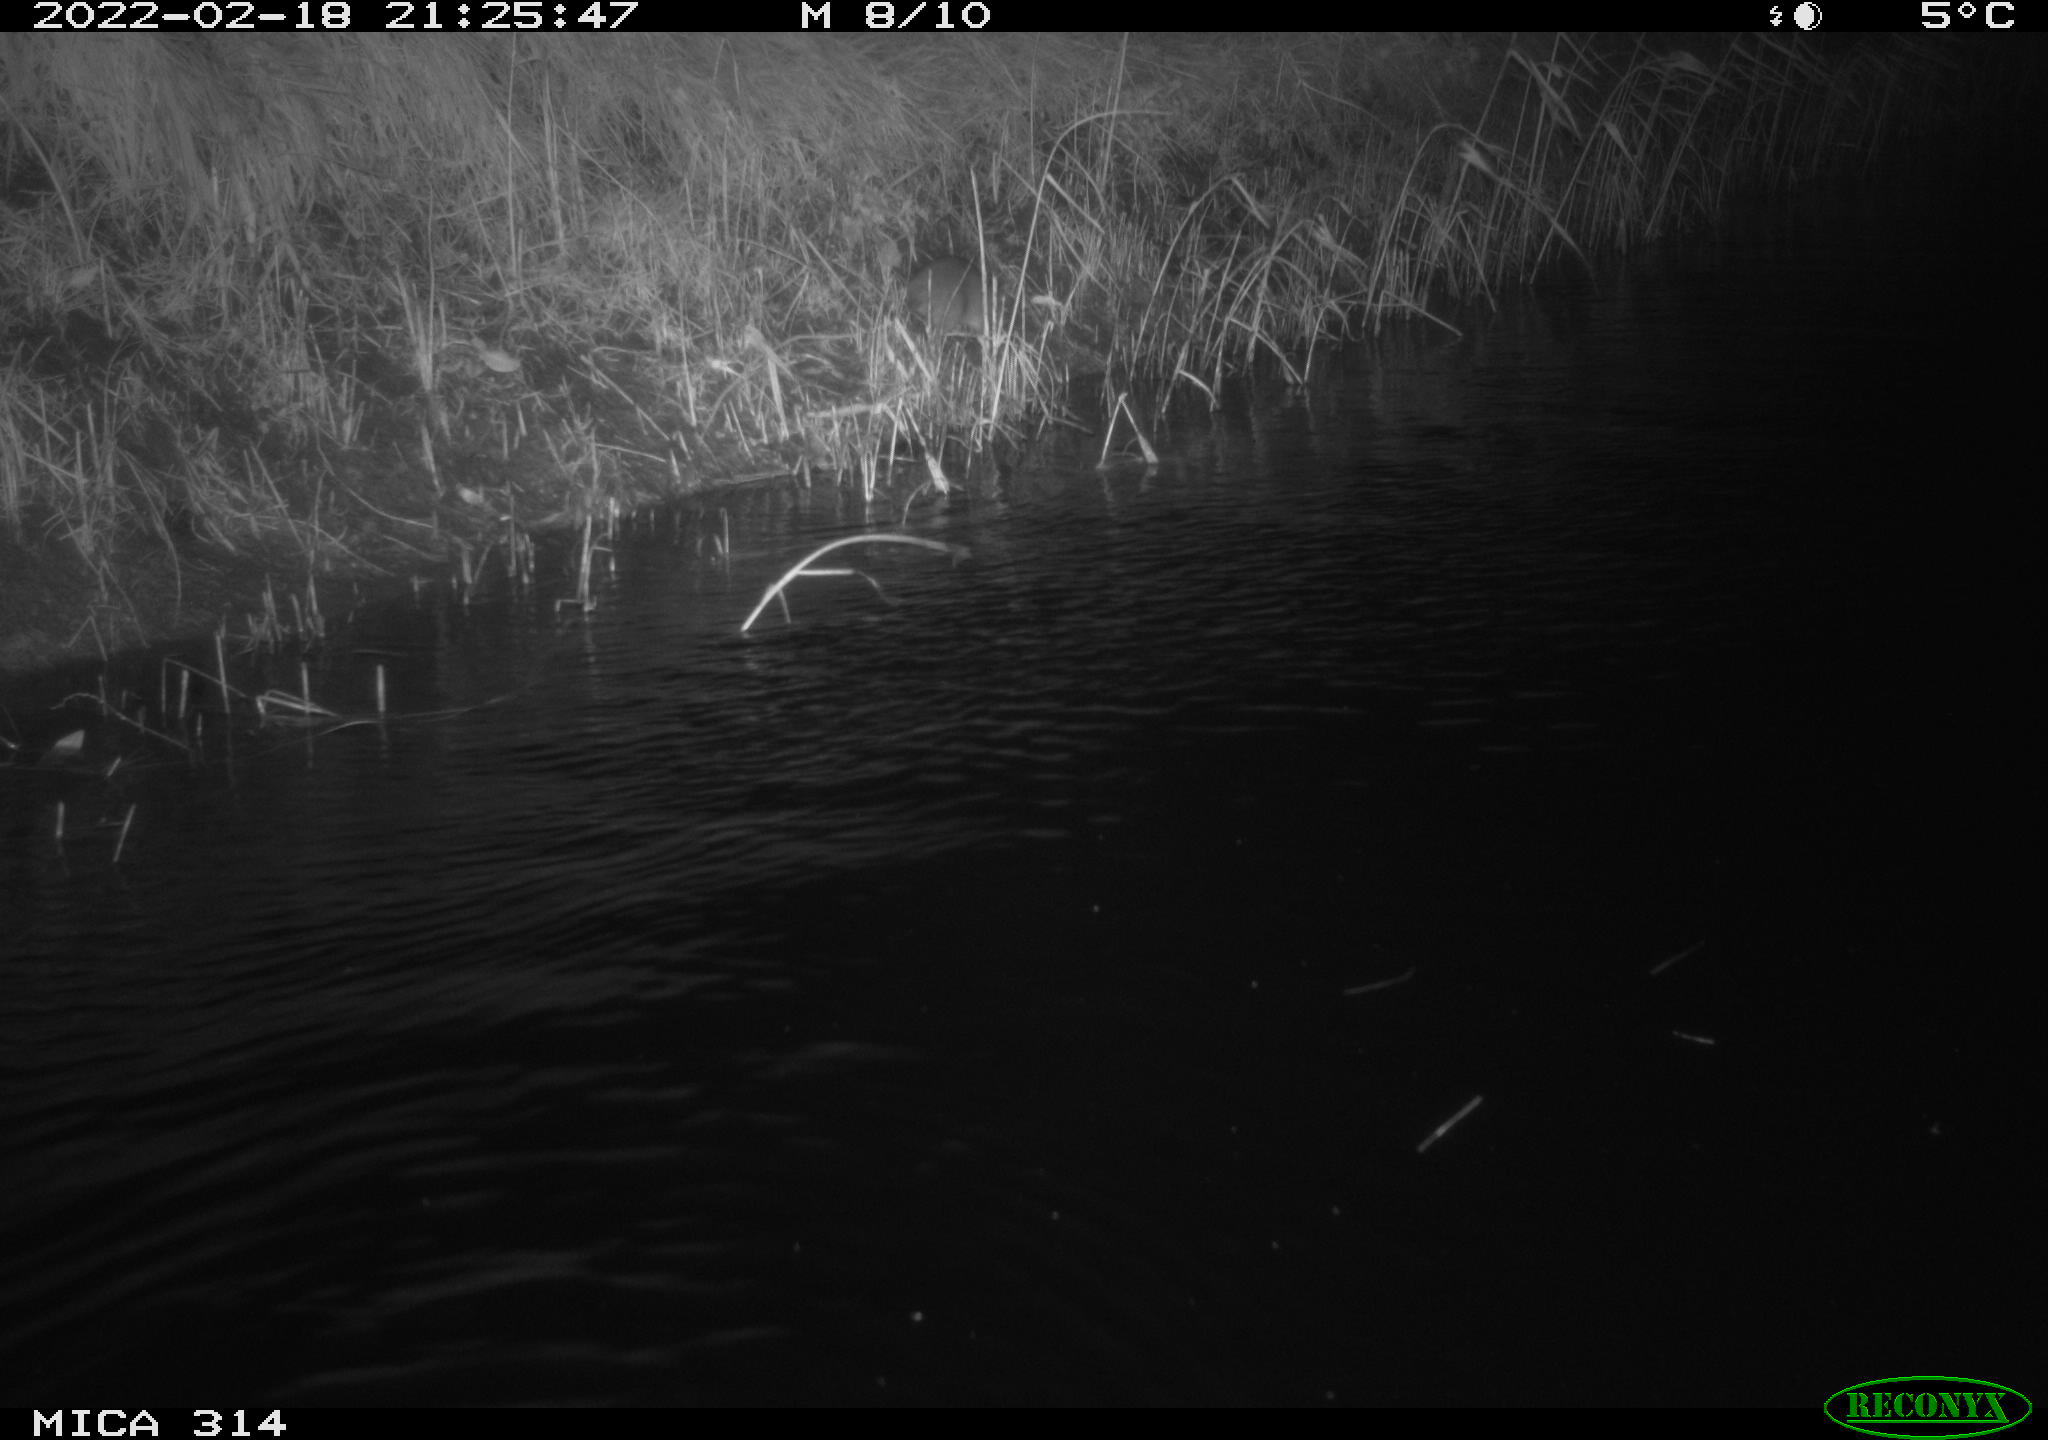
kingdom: Animalia
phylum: Chordata
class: Mammalia
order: Rodentia
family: Muridae
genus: Rattus
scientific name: Rattus norvegicus
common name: Brown rat
